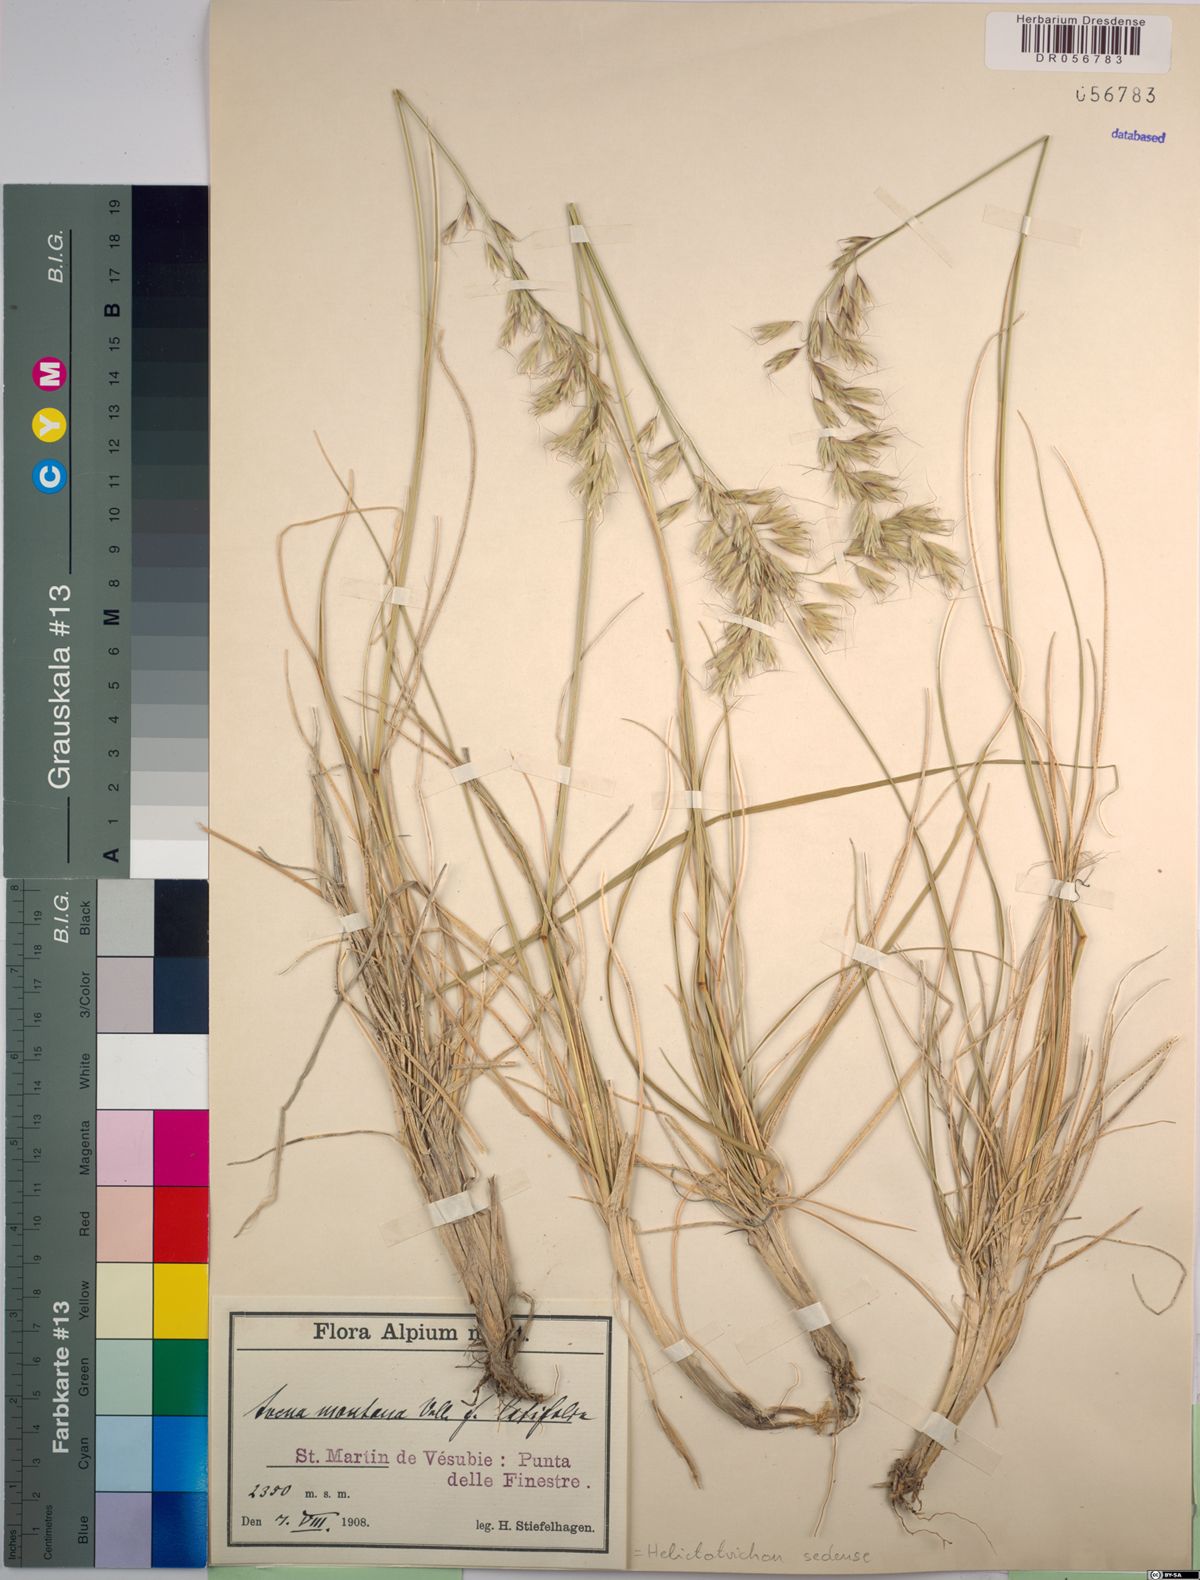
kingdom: Plantae
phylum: Tracheophyta
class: Liliopsida
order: Poales
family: Poaceae
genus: Helictotrichon
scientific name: Helictotrichon sedenense
